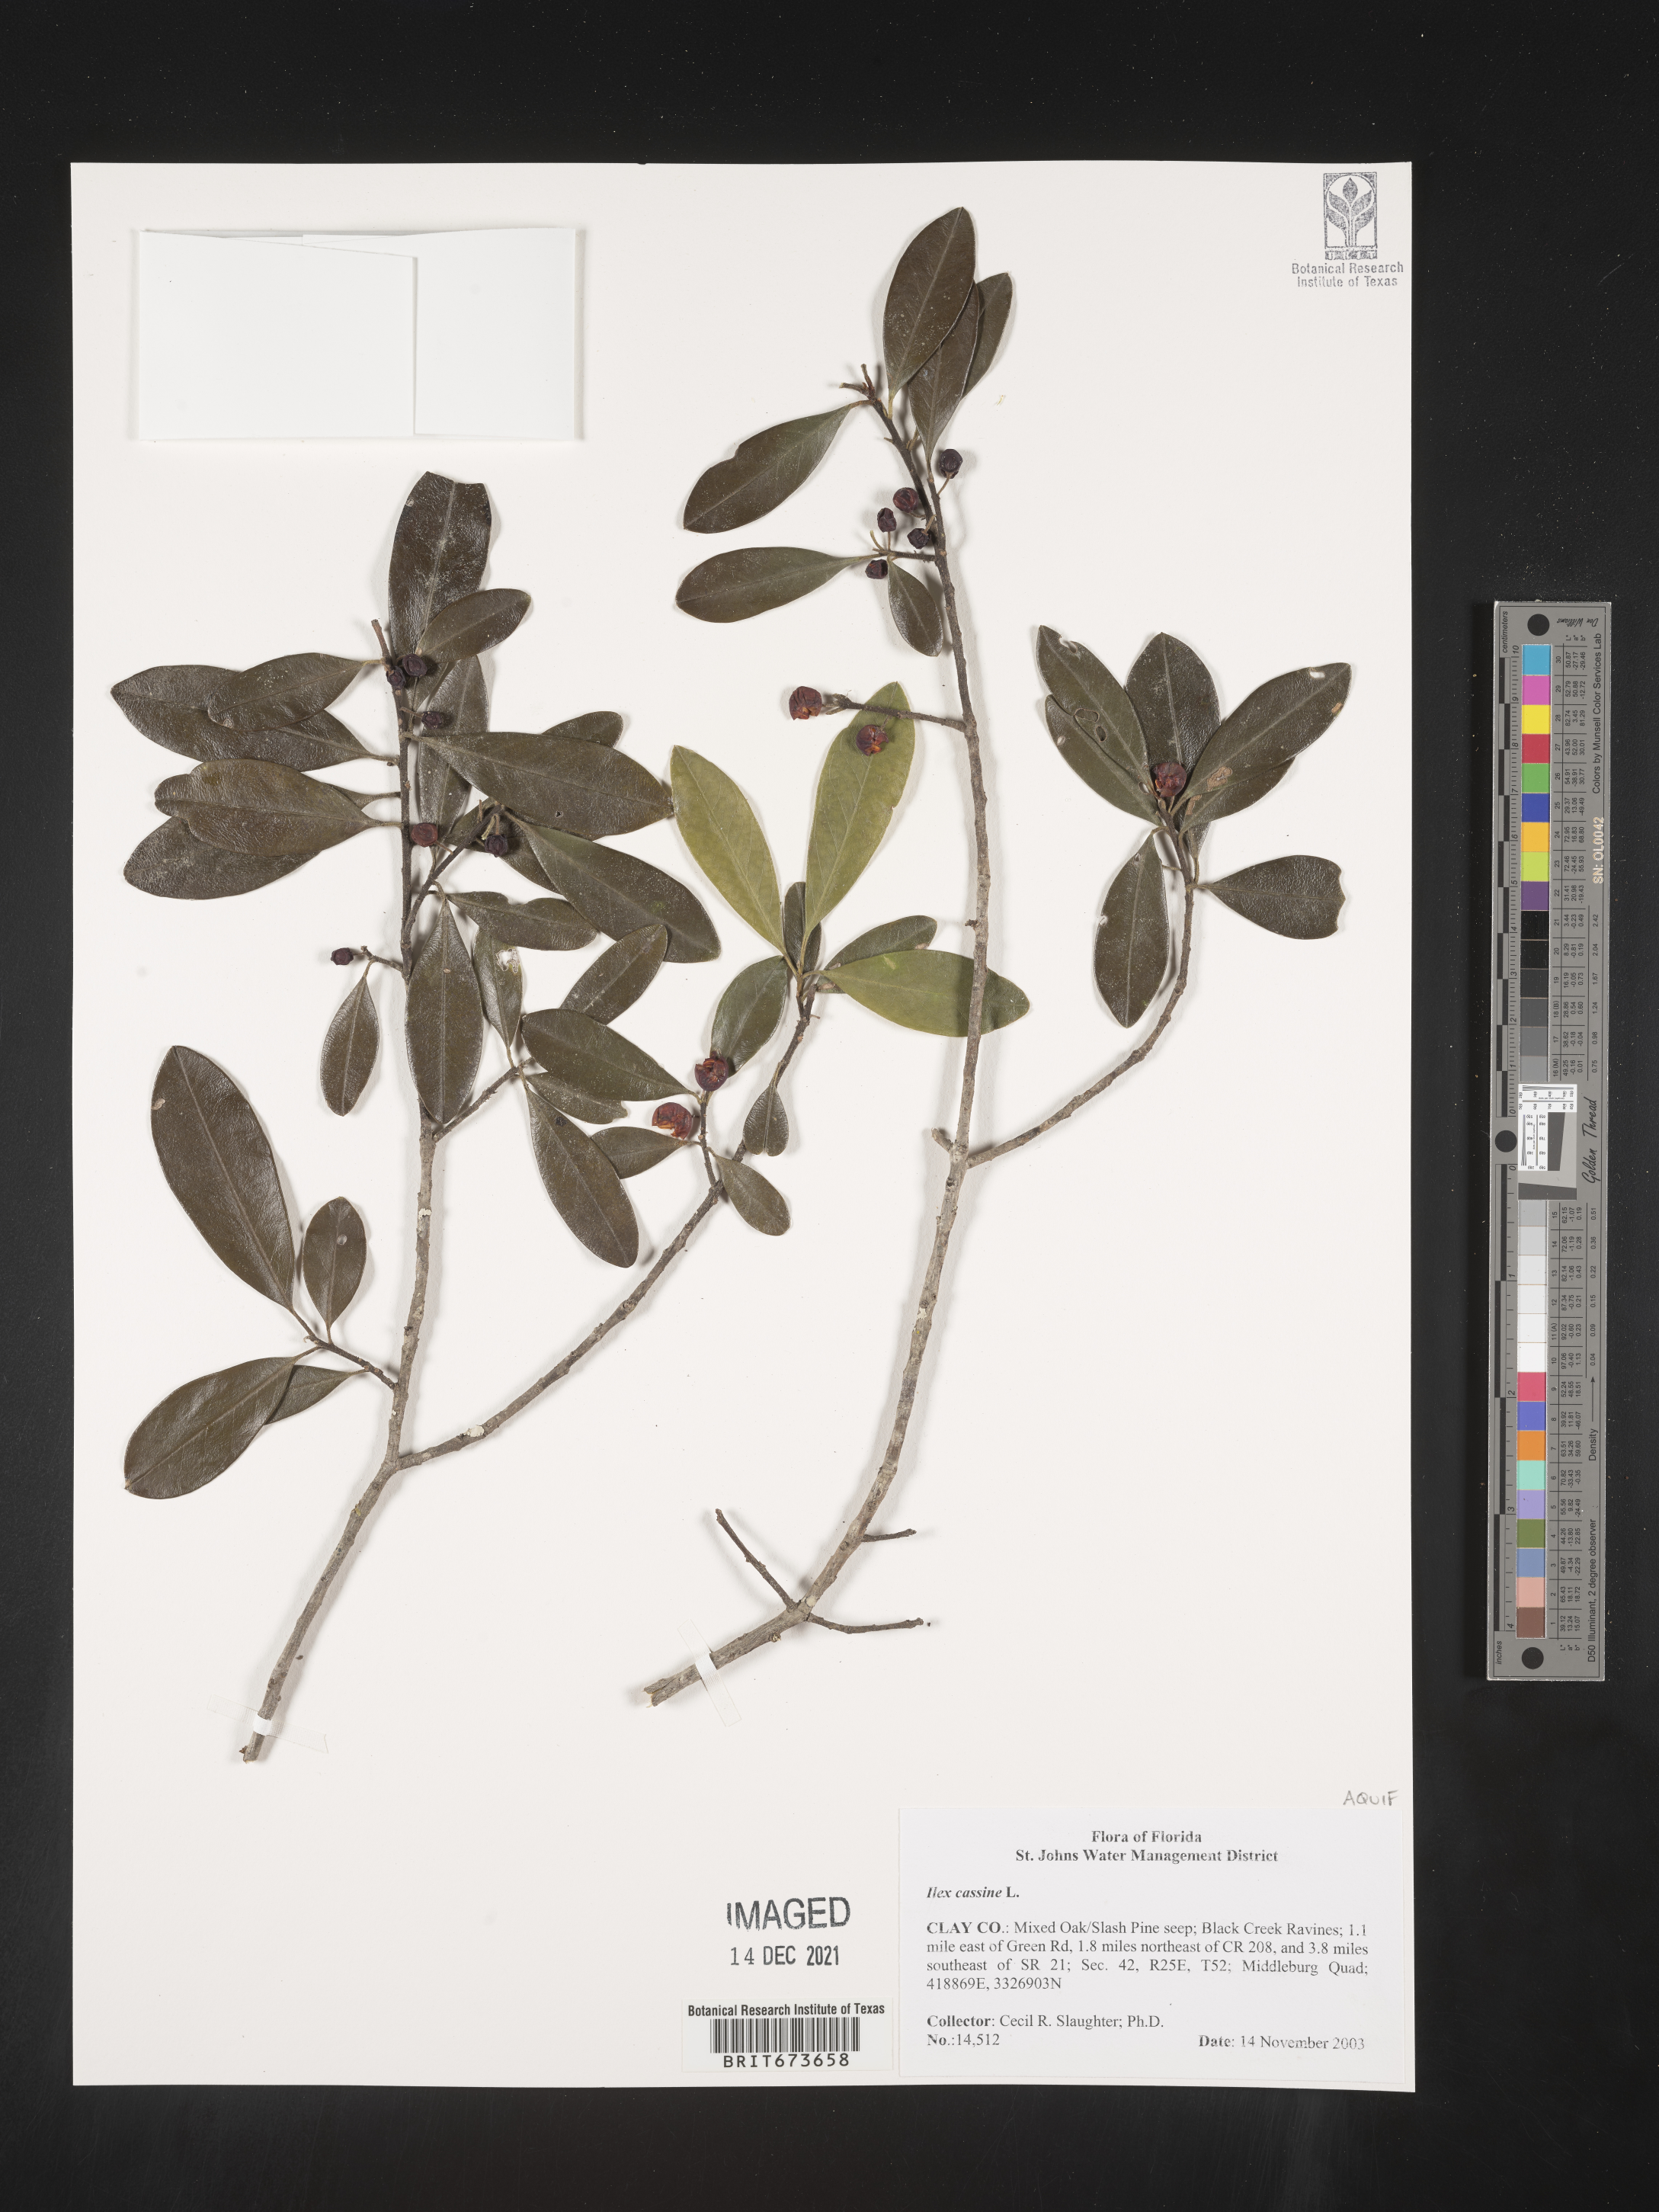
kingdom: Plantae
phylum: Tracheophyta
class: Magnoliopsida
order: Aquifoliales
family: Aquifoliaceae
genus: Ilex
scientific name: Ilex cassine
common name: Dahoon
